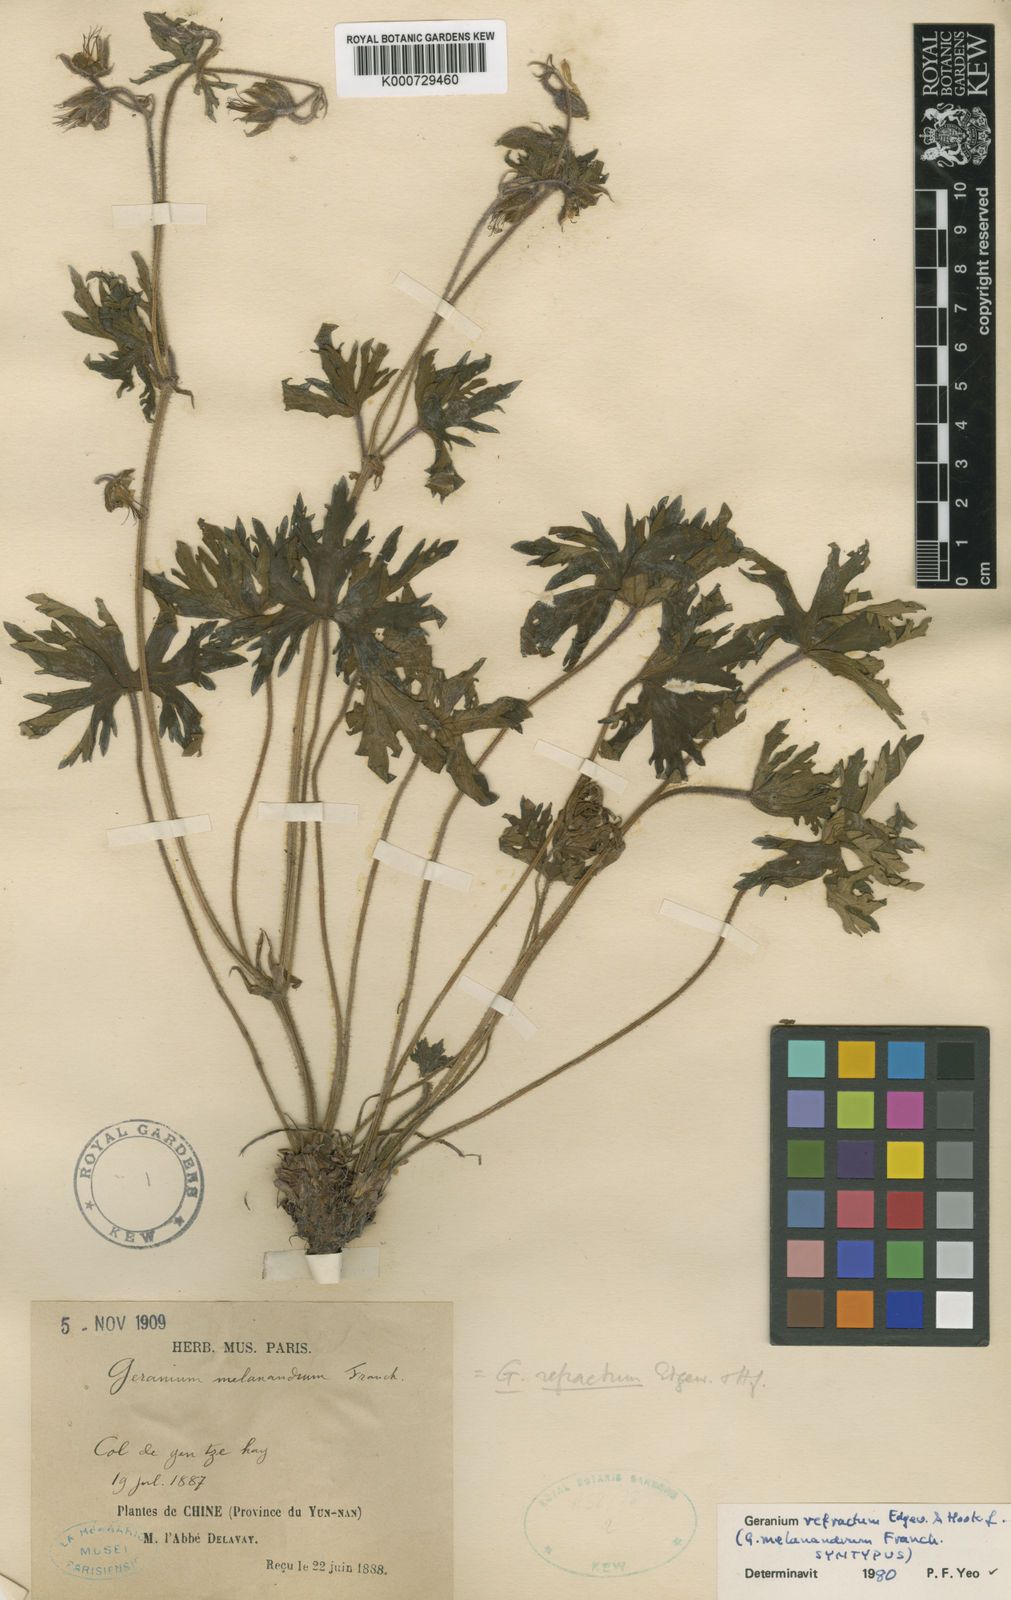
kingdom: Plantae
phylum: Tracheophyta
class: Magnoliopsida
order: Geraniales
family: Geraniaceae
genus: Geranium
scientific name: Geranium refractum
